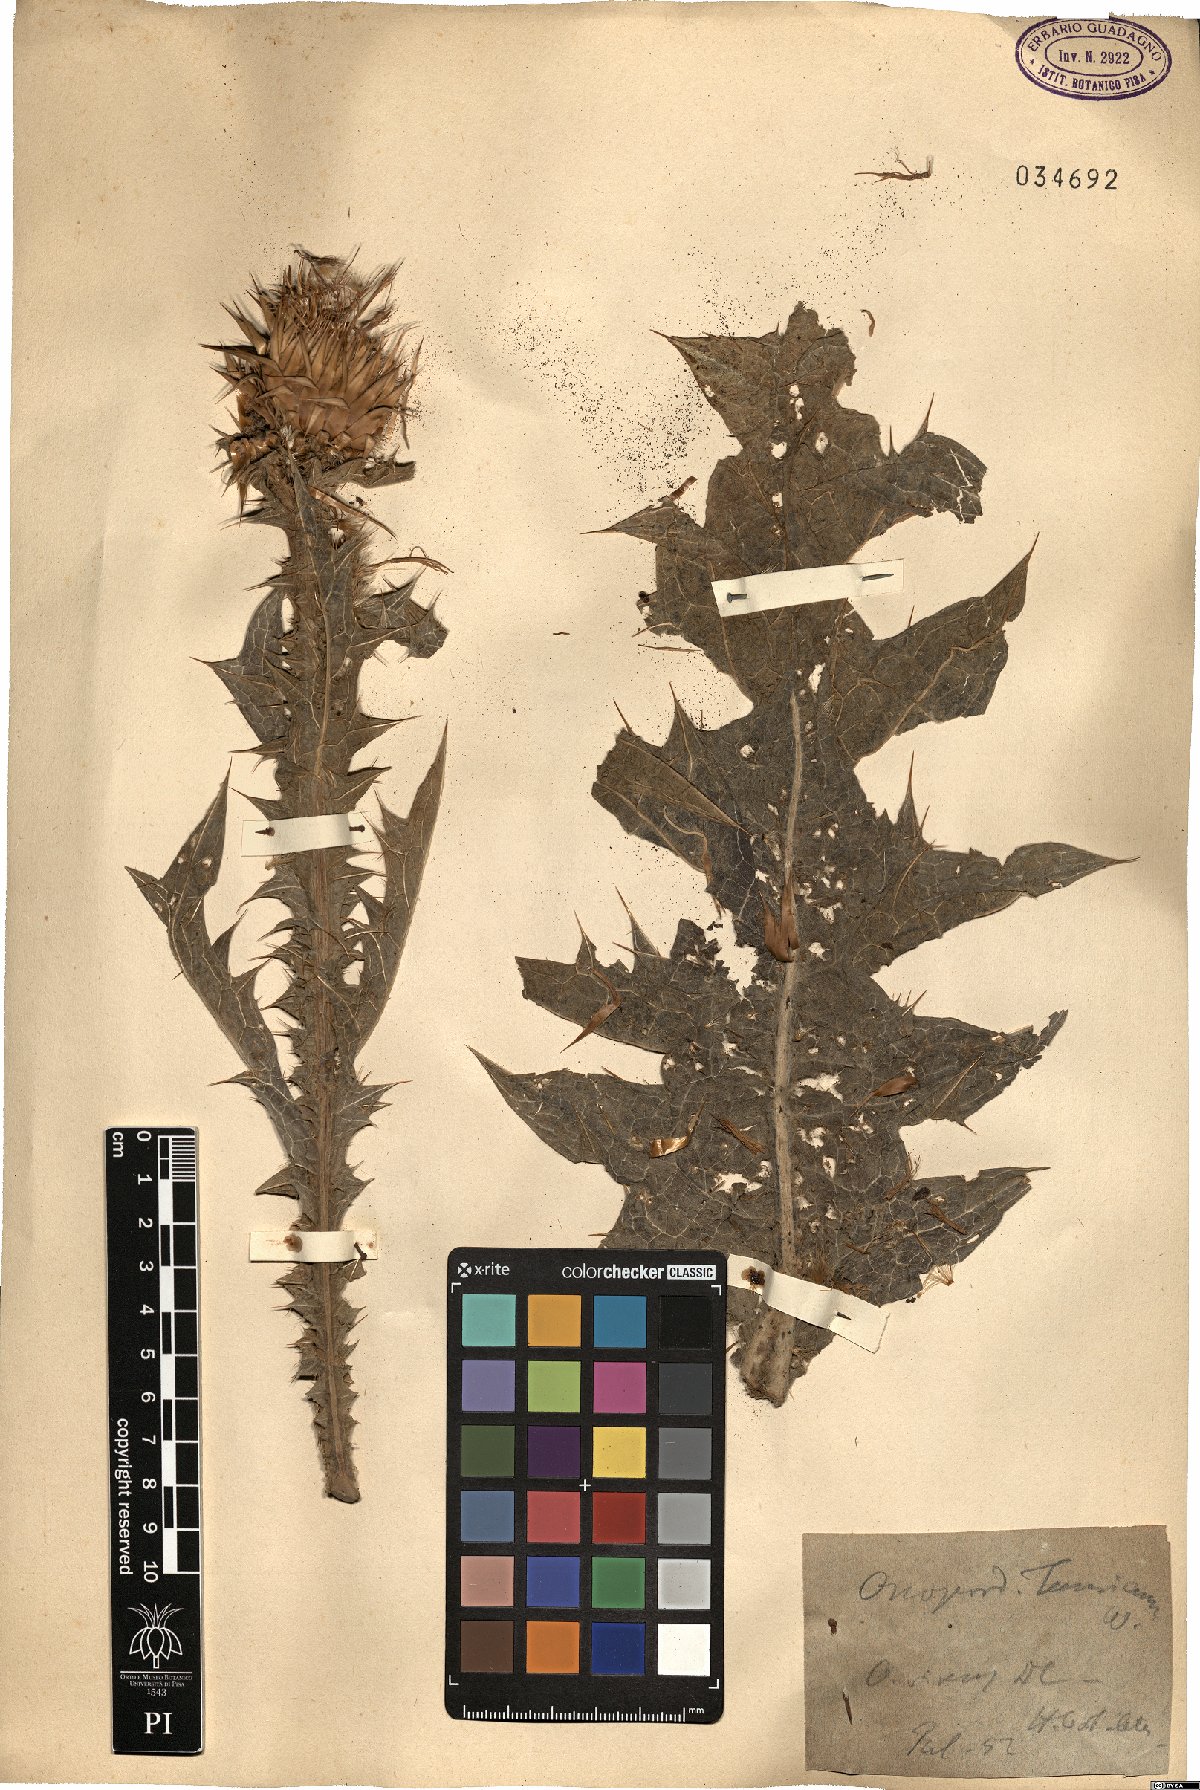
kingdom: Plantae
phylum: Tracheophyta
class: Magnoliopsida
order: Asterales
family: Asteraceae
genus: Onopordum
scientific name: Onopordum tauricum
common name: Bull cottonthistle
